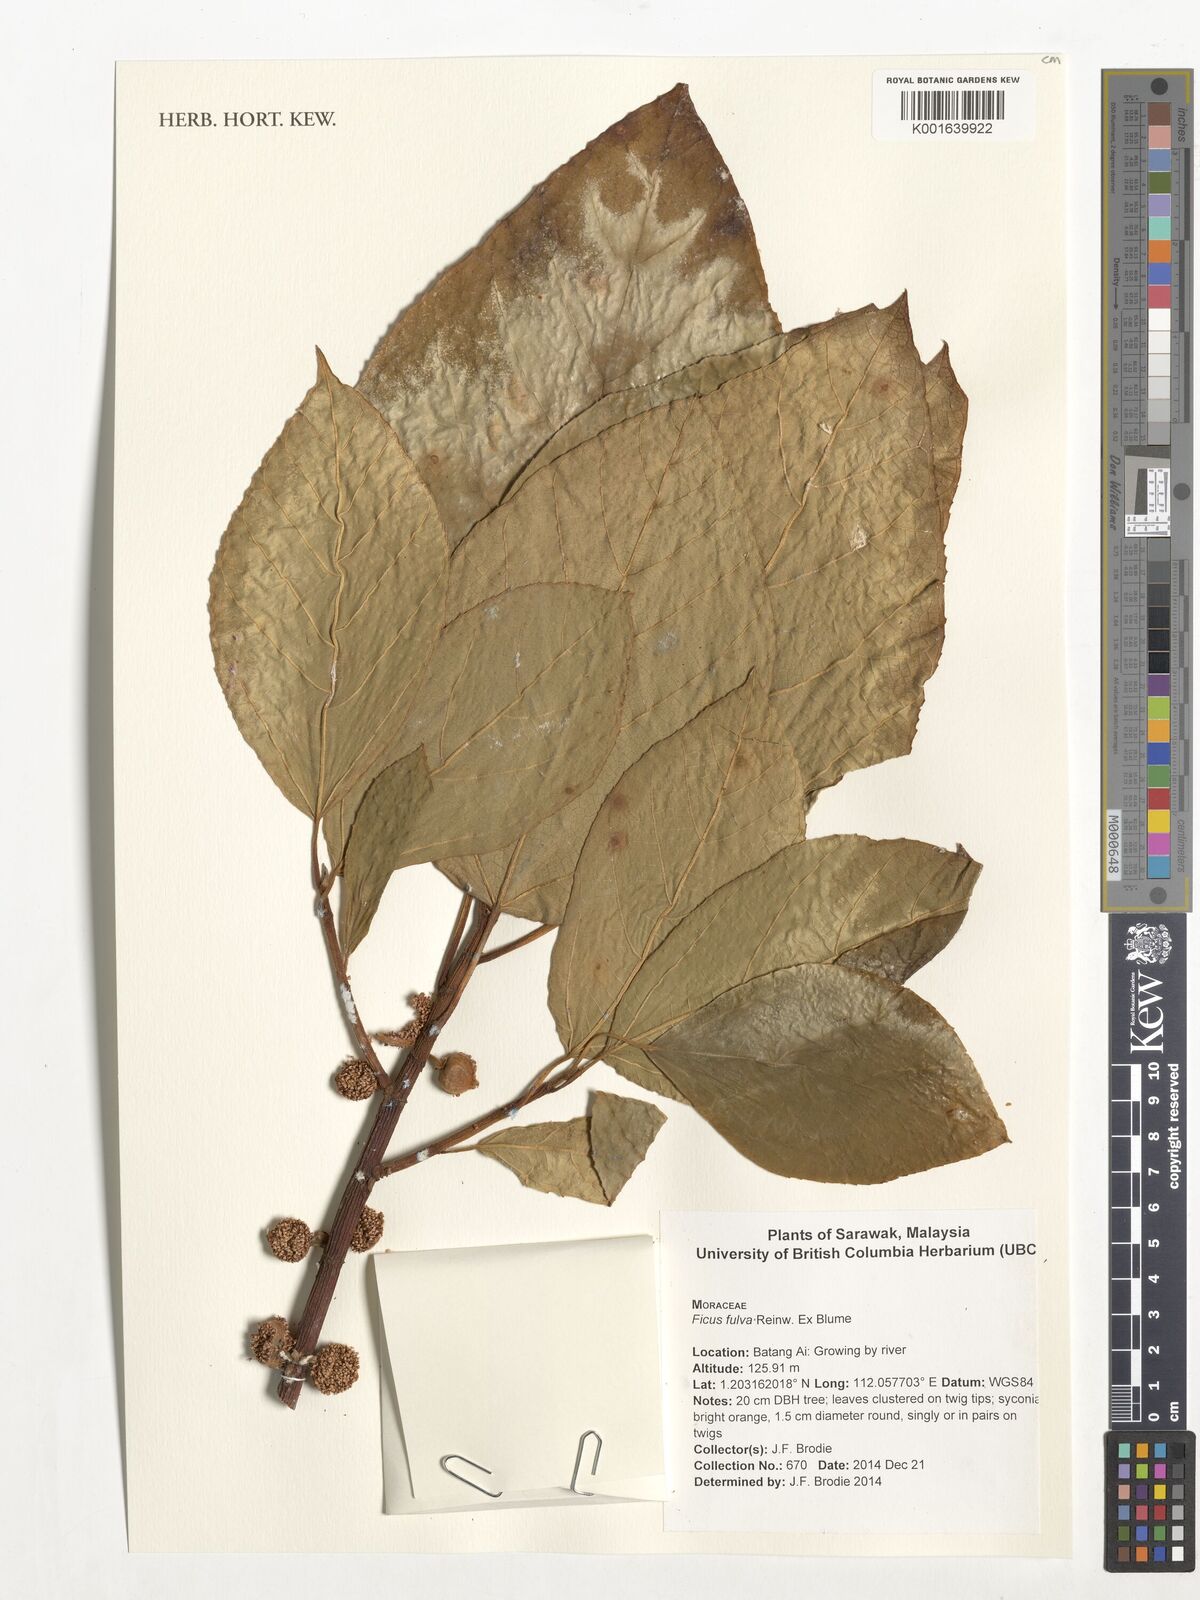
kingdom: Plantae
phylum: Tracheophyta
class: Magnoliopsida
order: Rosales
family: Moraceae
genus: Ficus
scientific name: Ficus fulva
